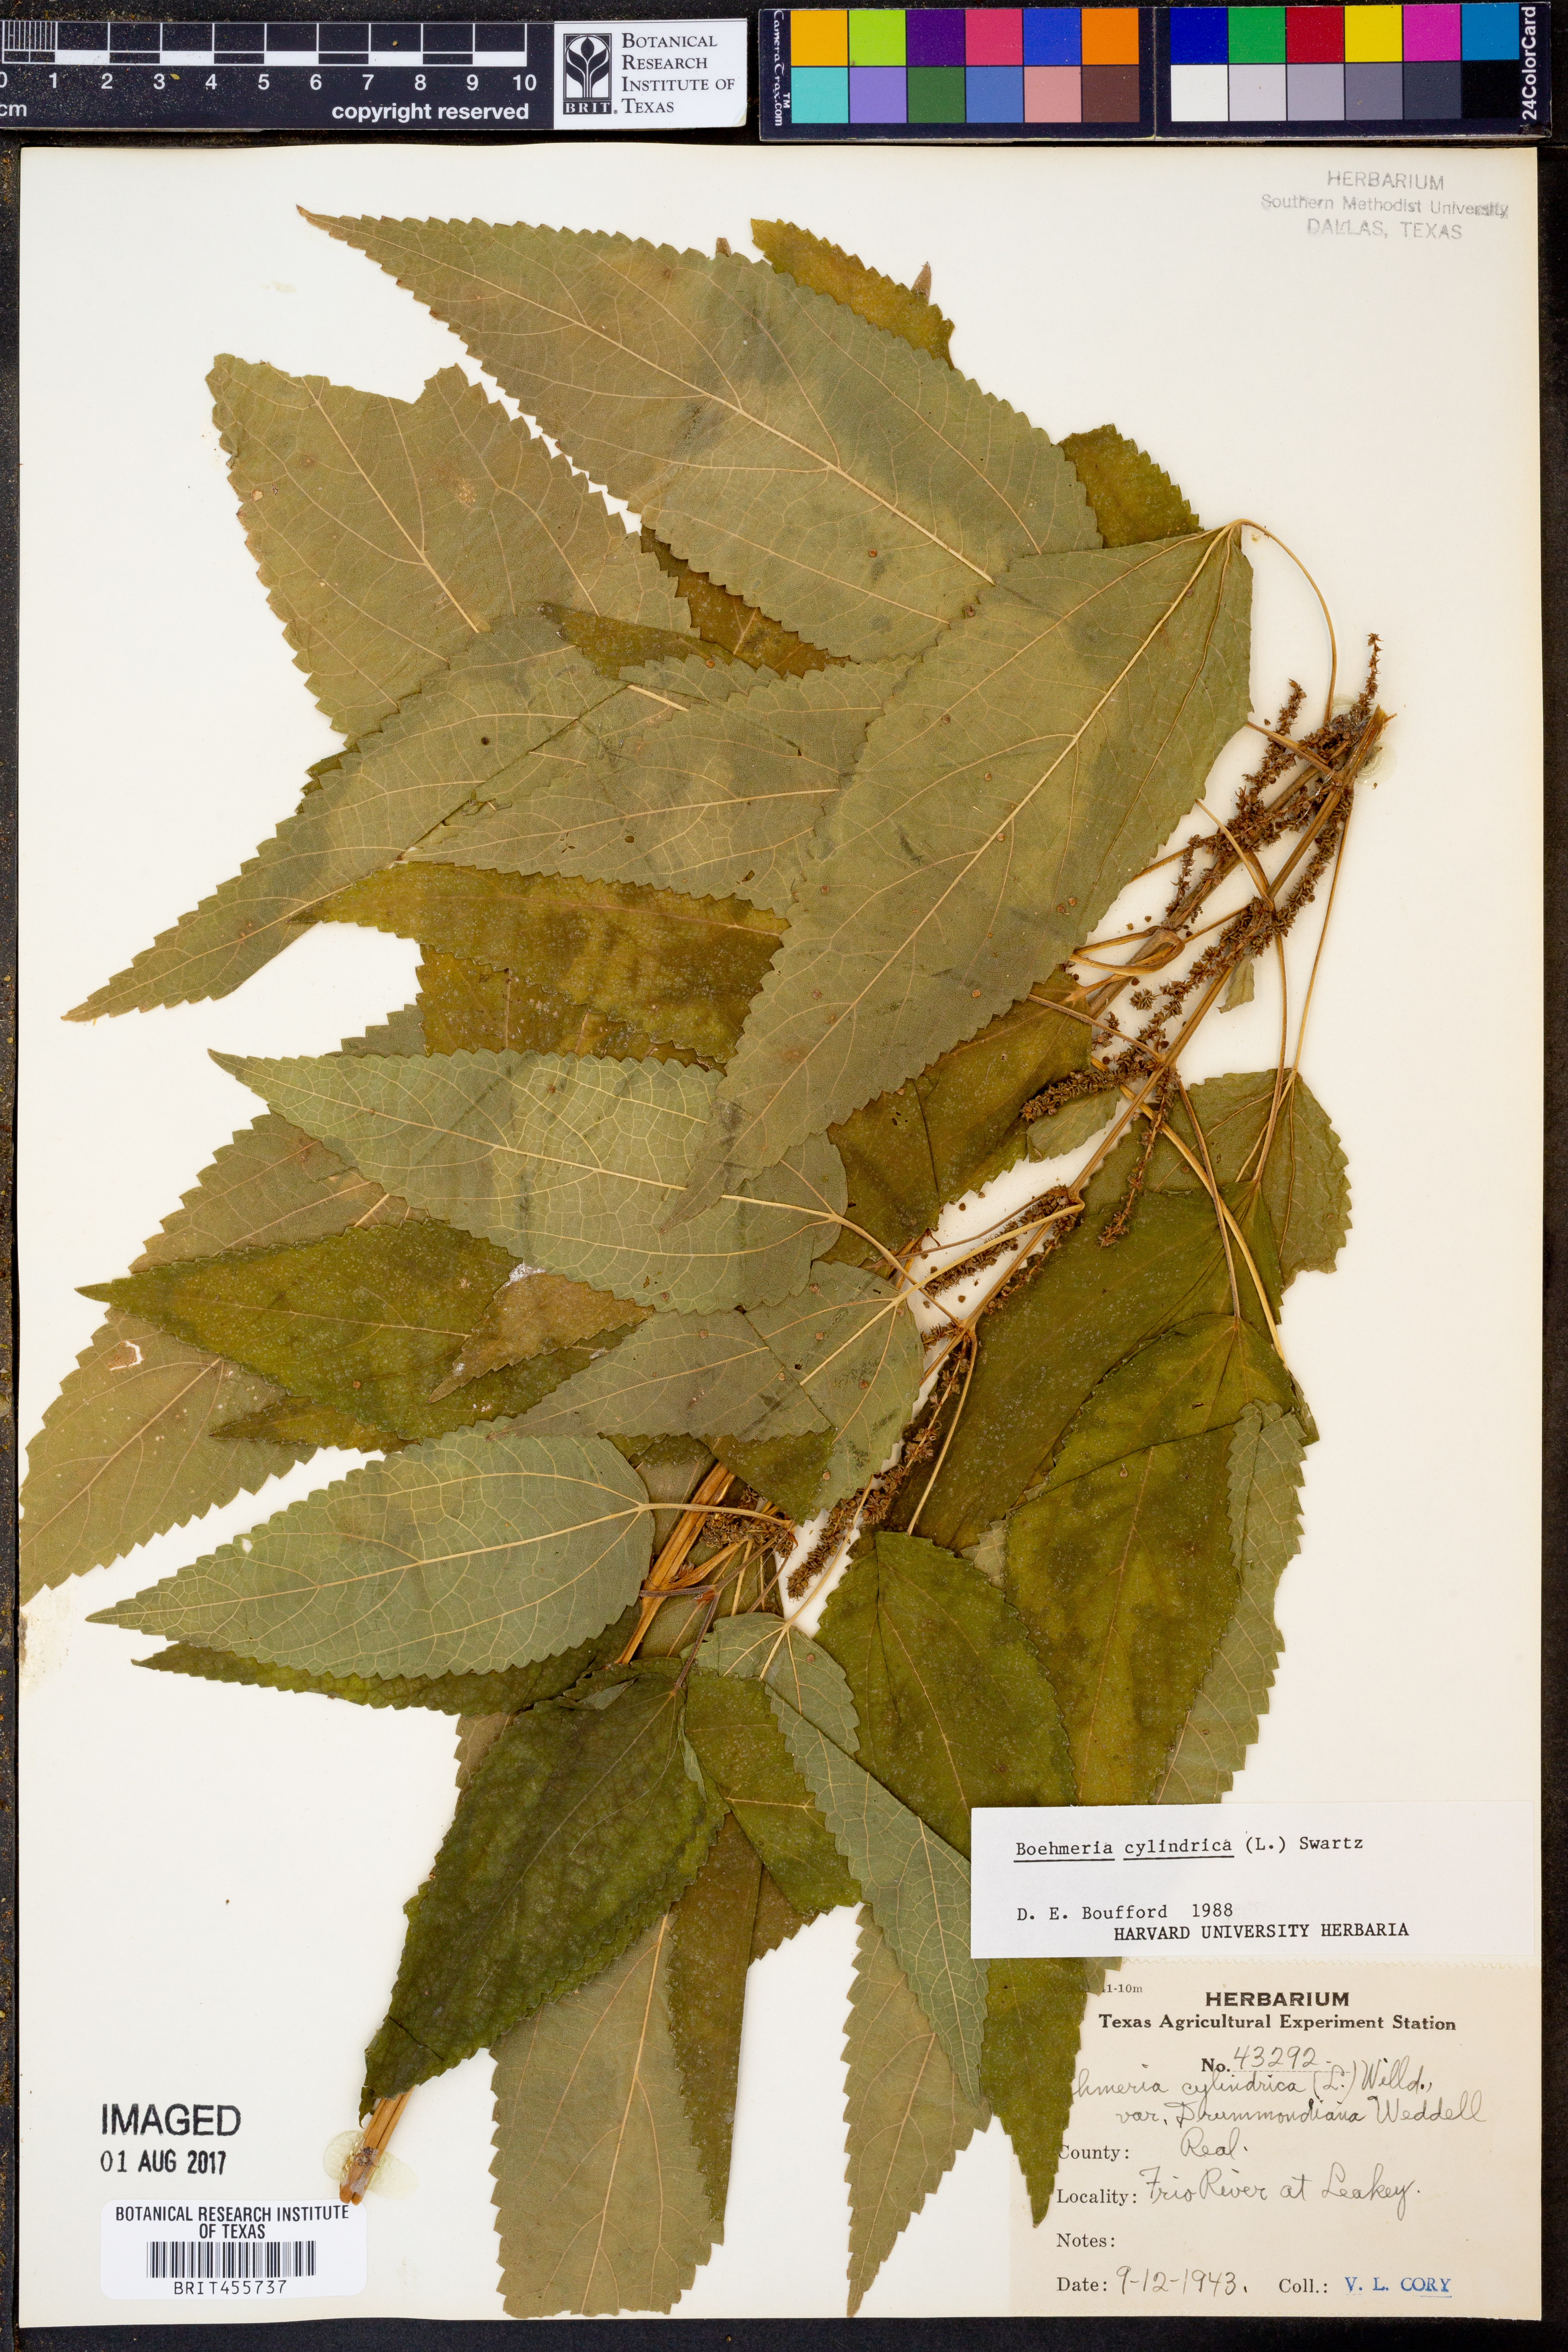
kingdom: Plantae
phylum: Tracheophyta
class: Magnoliopsida
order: Rosales
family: Urticaceae
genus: Boehmeria
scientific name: Boehmeria cylindrica
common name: Bog-hemp
